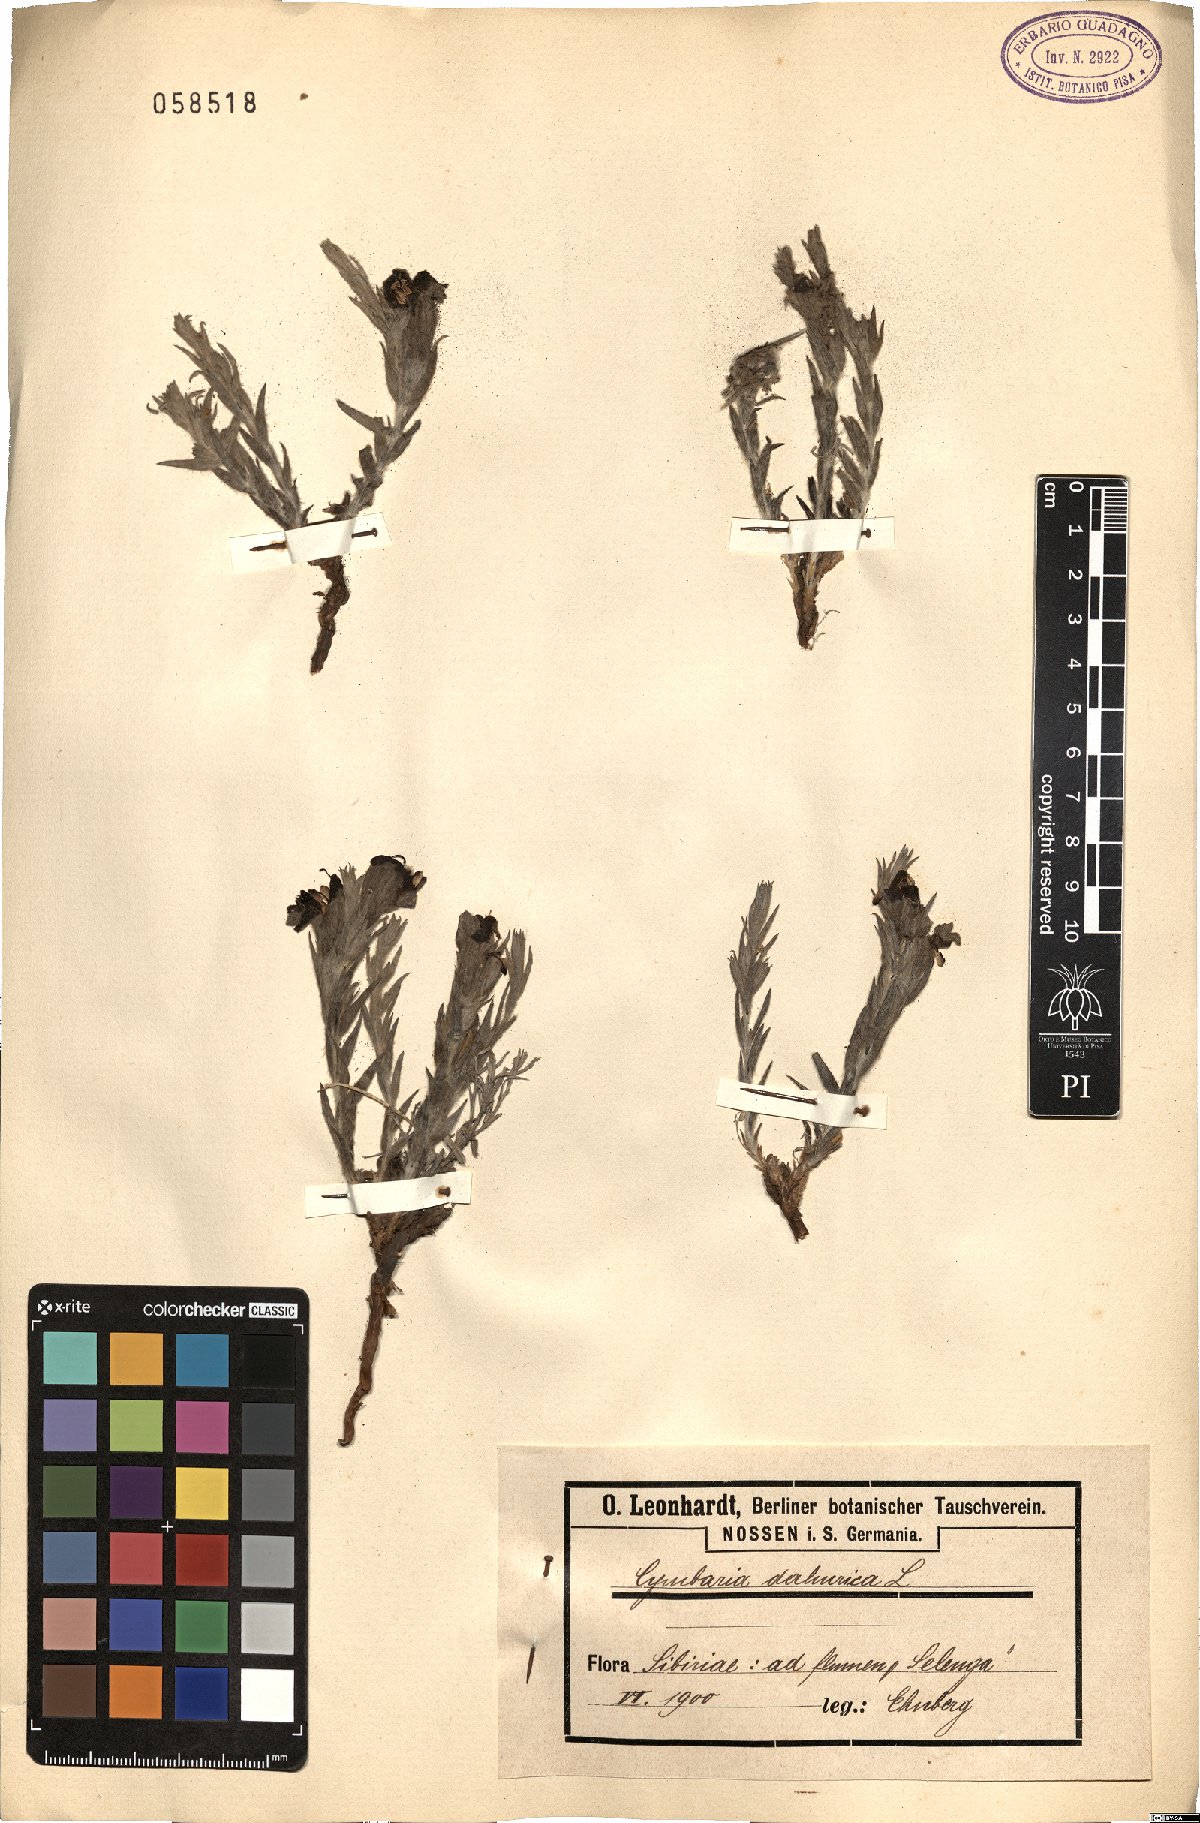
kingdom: Plantae
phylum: Tracheophyta
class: Magnoliopsida
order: Lamiales
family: Orobanchaceae
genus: Cymbaria
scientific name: Cymbaria daurica
